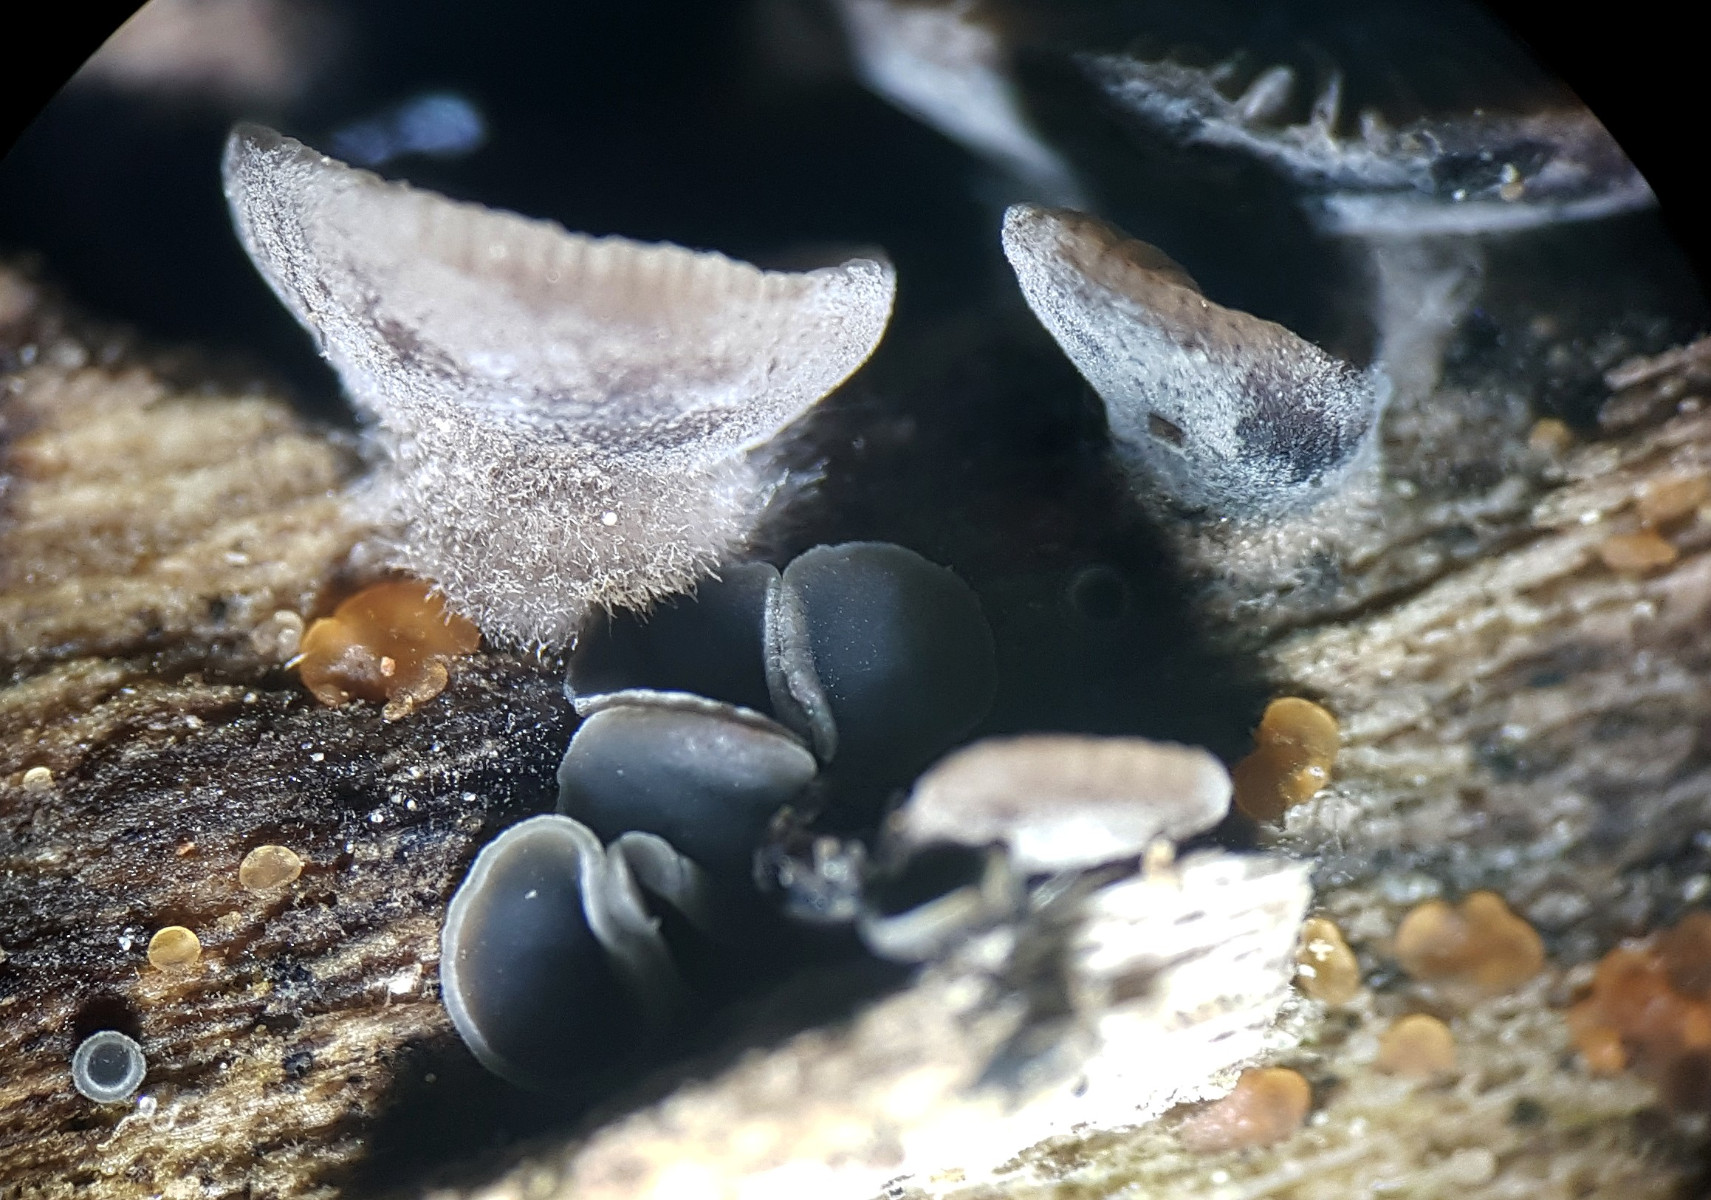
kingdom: Fungi
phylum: Basidiomycota
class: Agaricomycetes
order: Agaricales
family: Pleurotaceae
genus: Resupinatus
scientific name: Resupinatus applicatus
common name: lysfiltet barkhat
